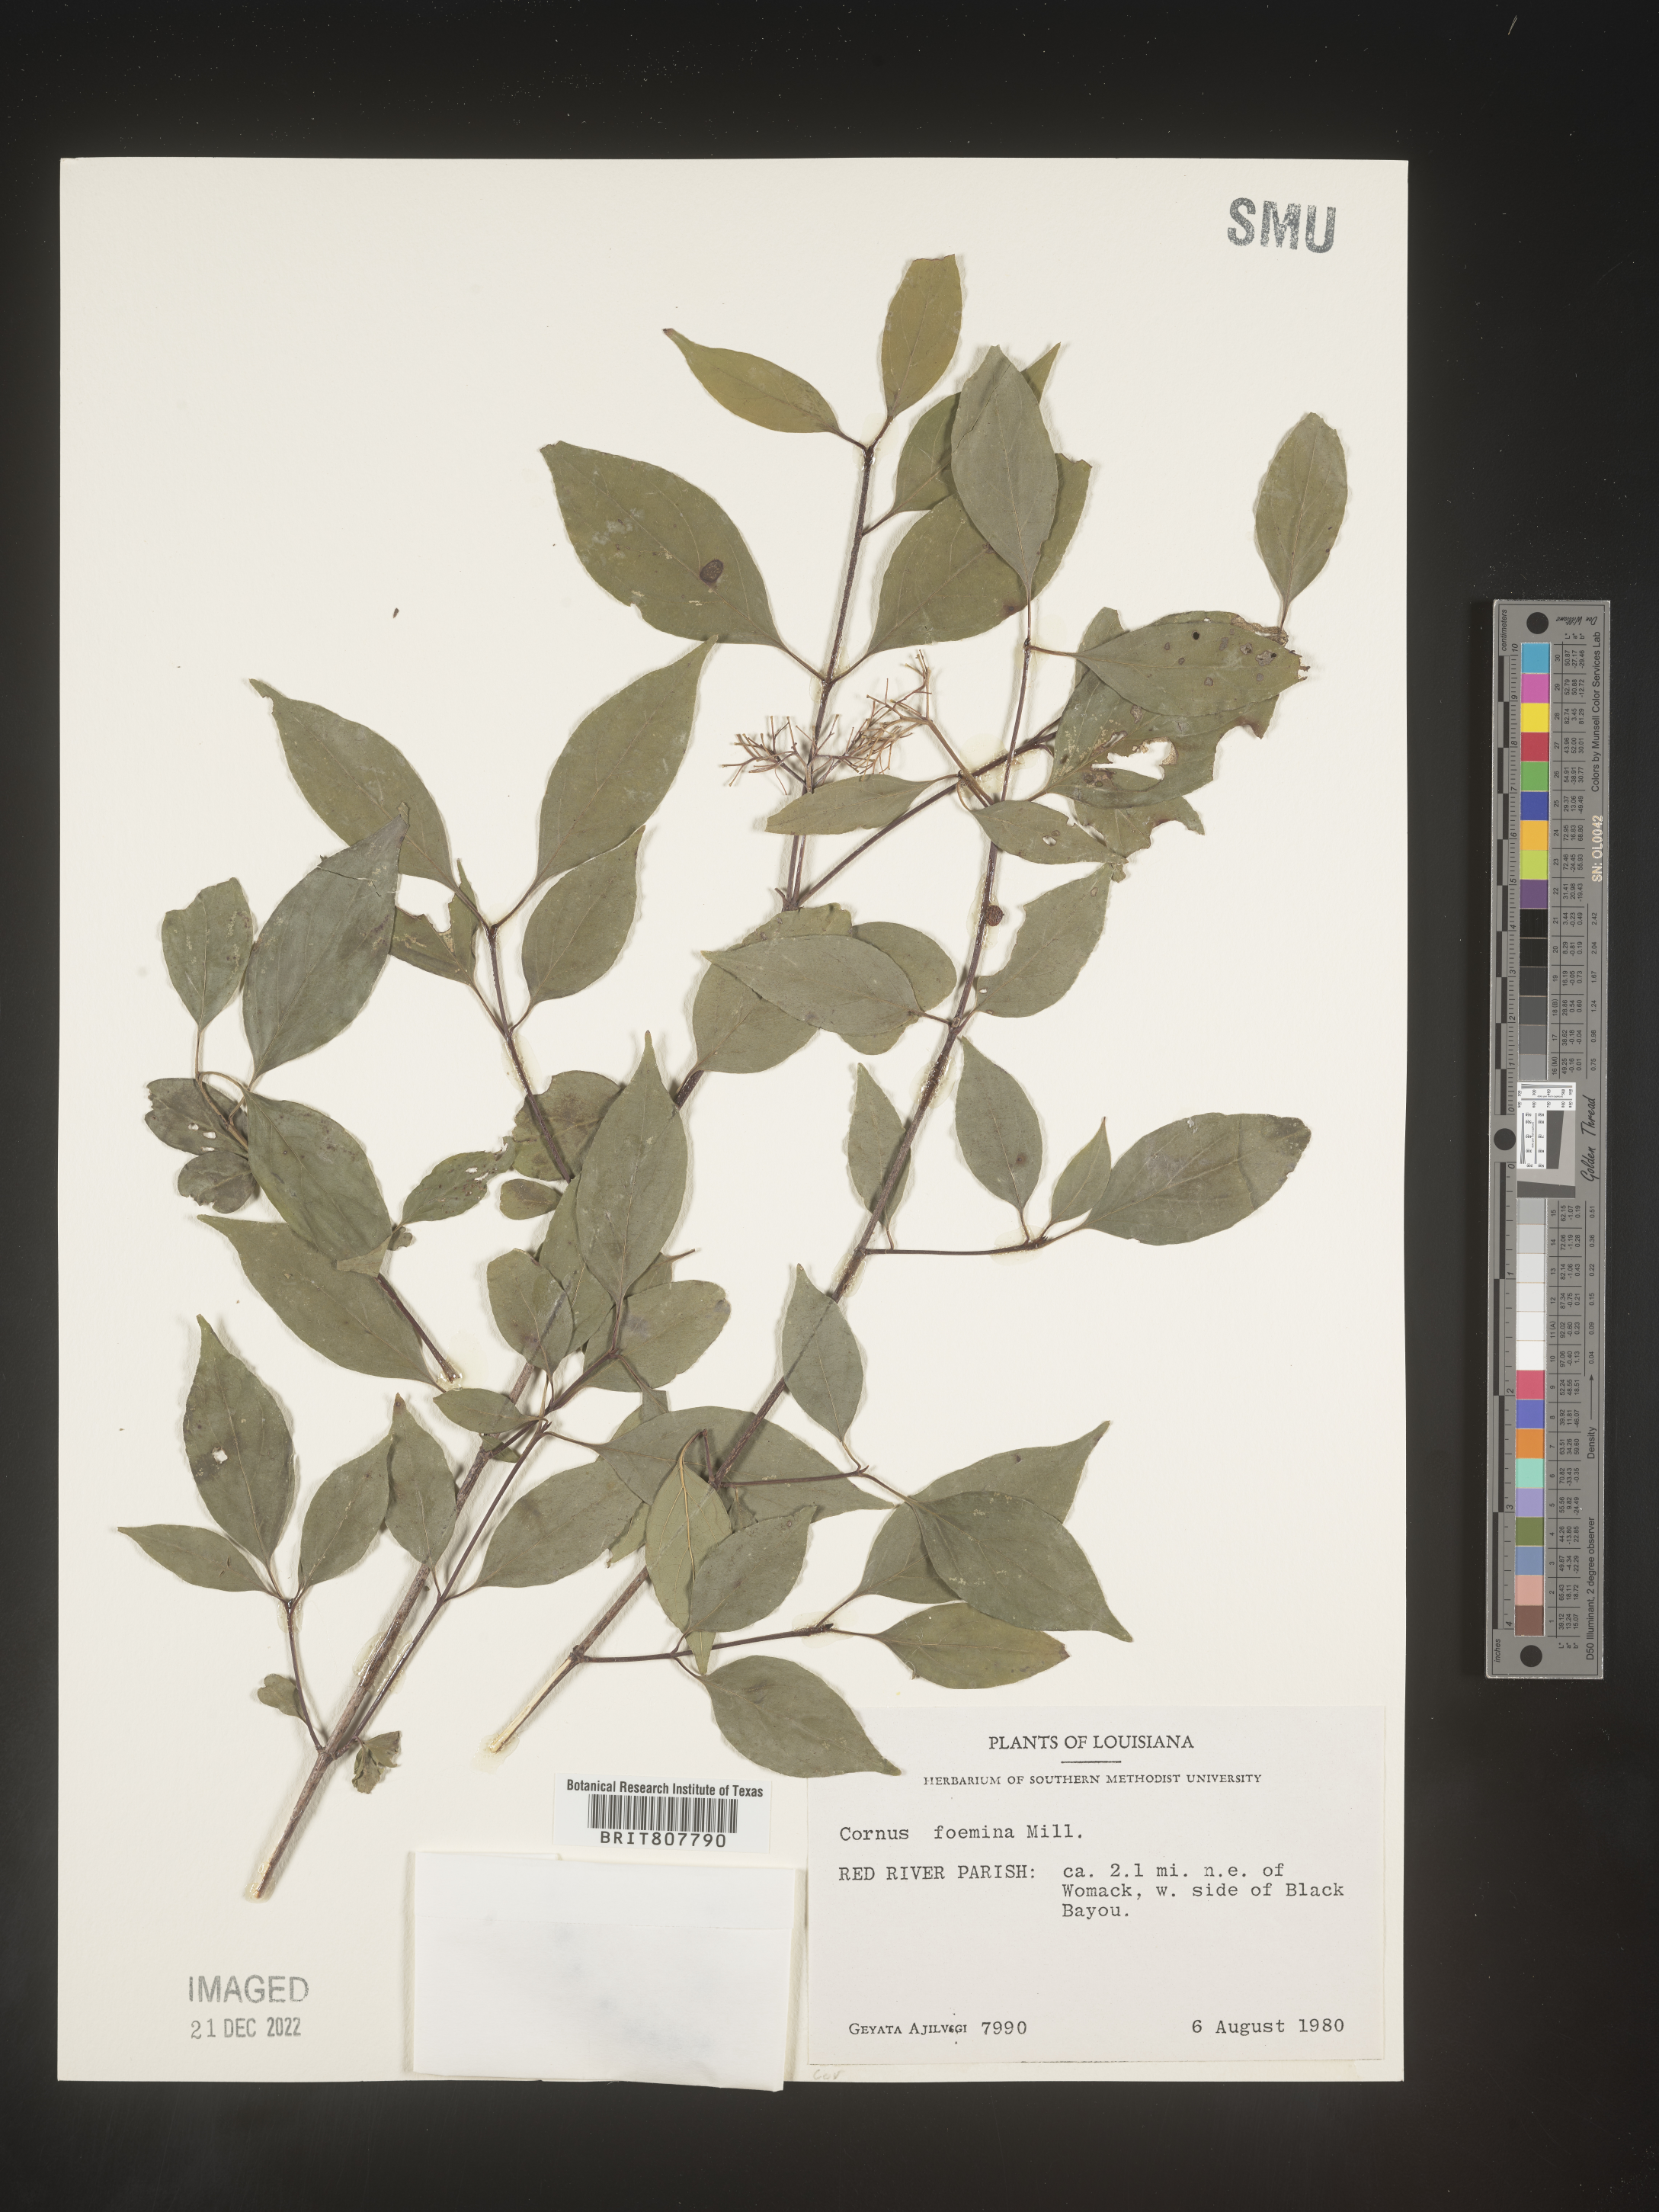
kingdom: Plantae
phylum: Tracheophyta
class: Magnoliopsida
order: Cornales
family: Cornaceae
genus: Cornus
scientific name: Cornus foemina
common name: Swamp dogwood
